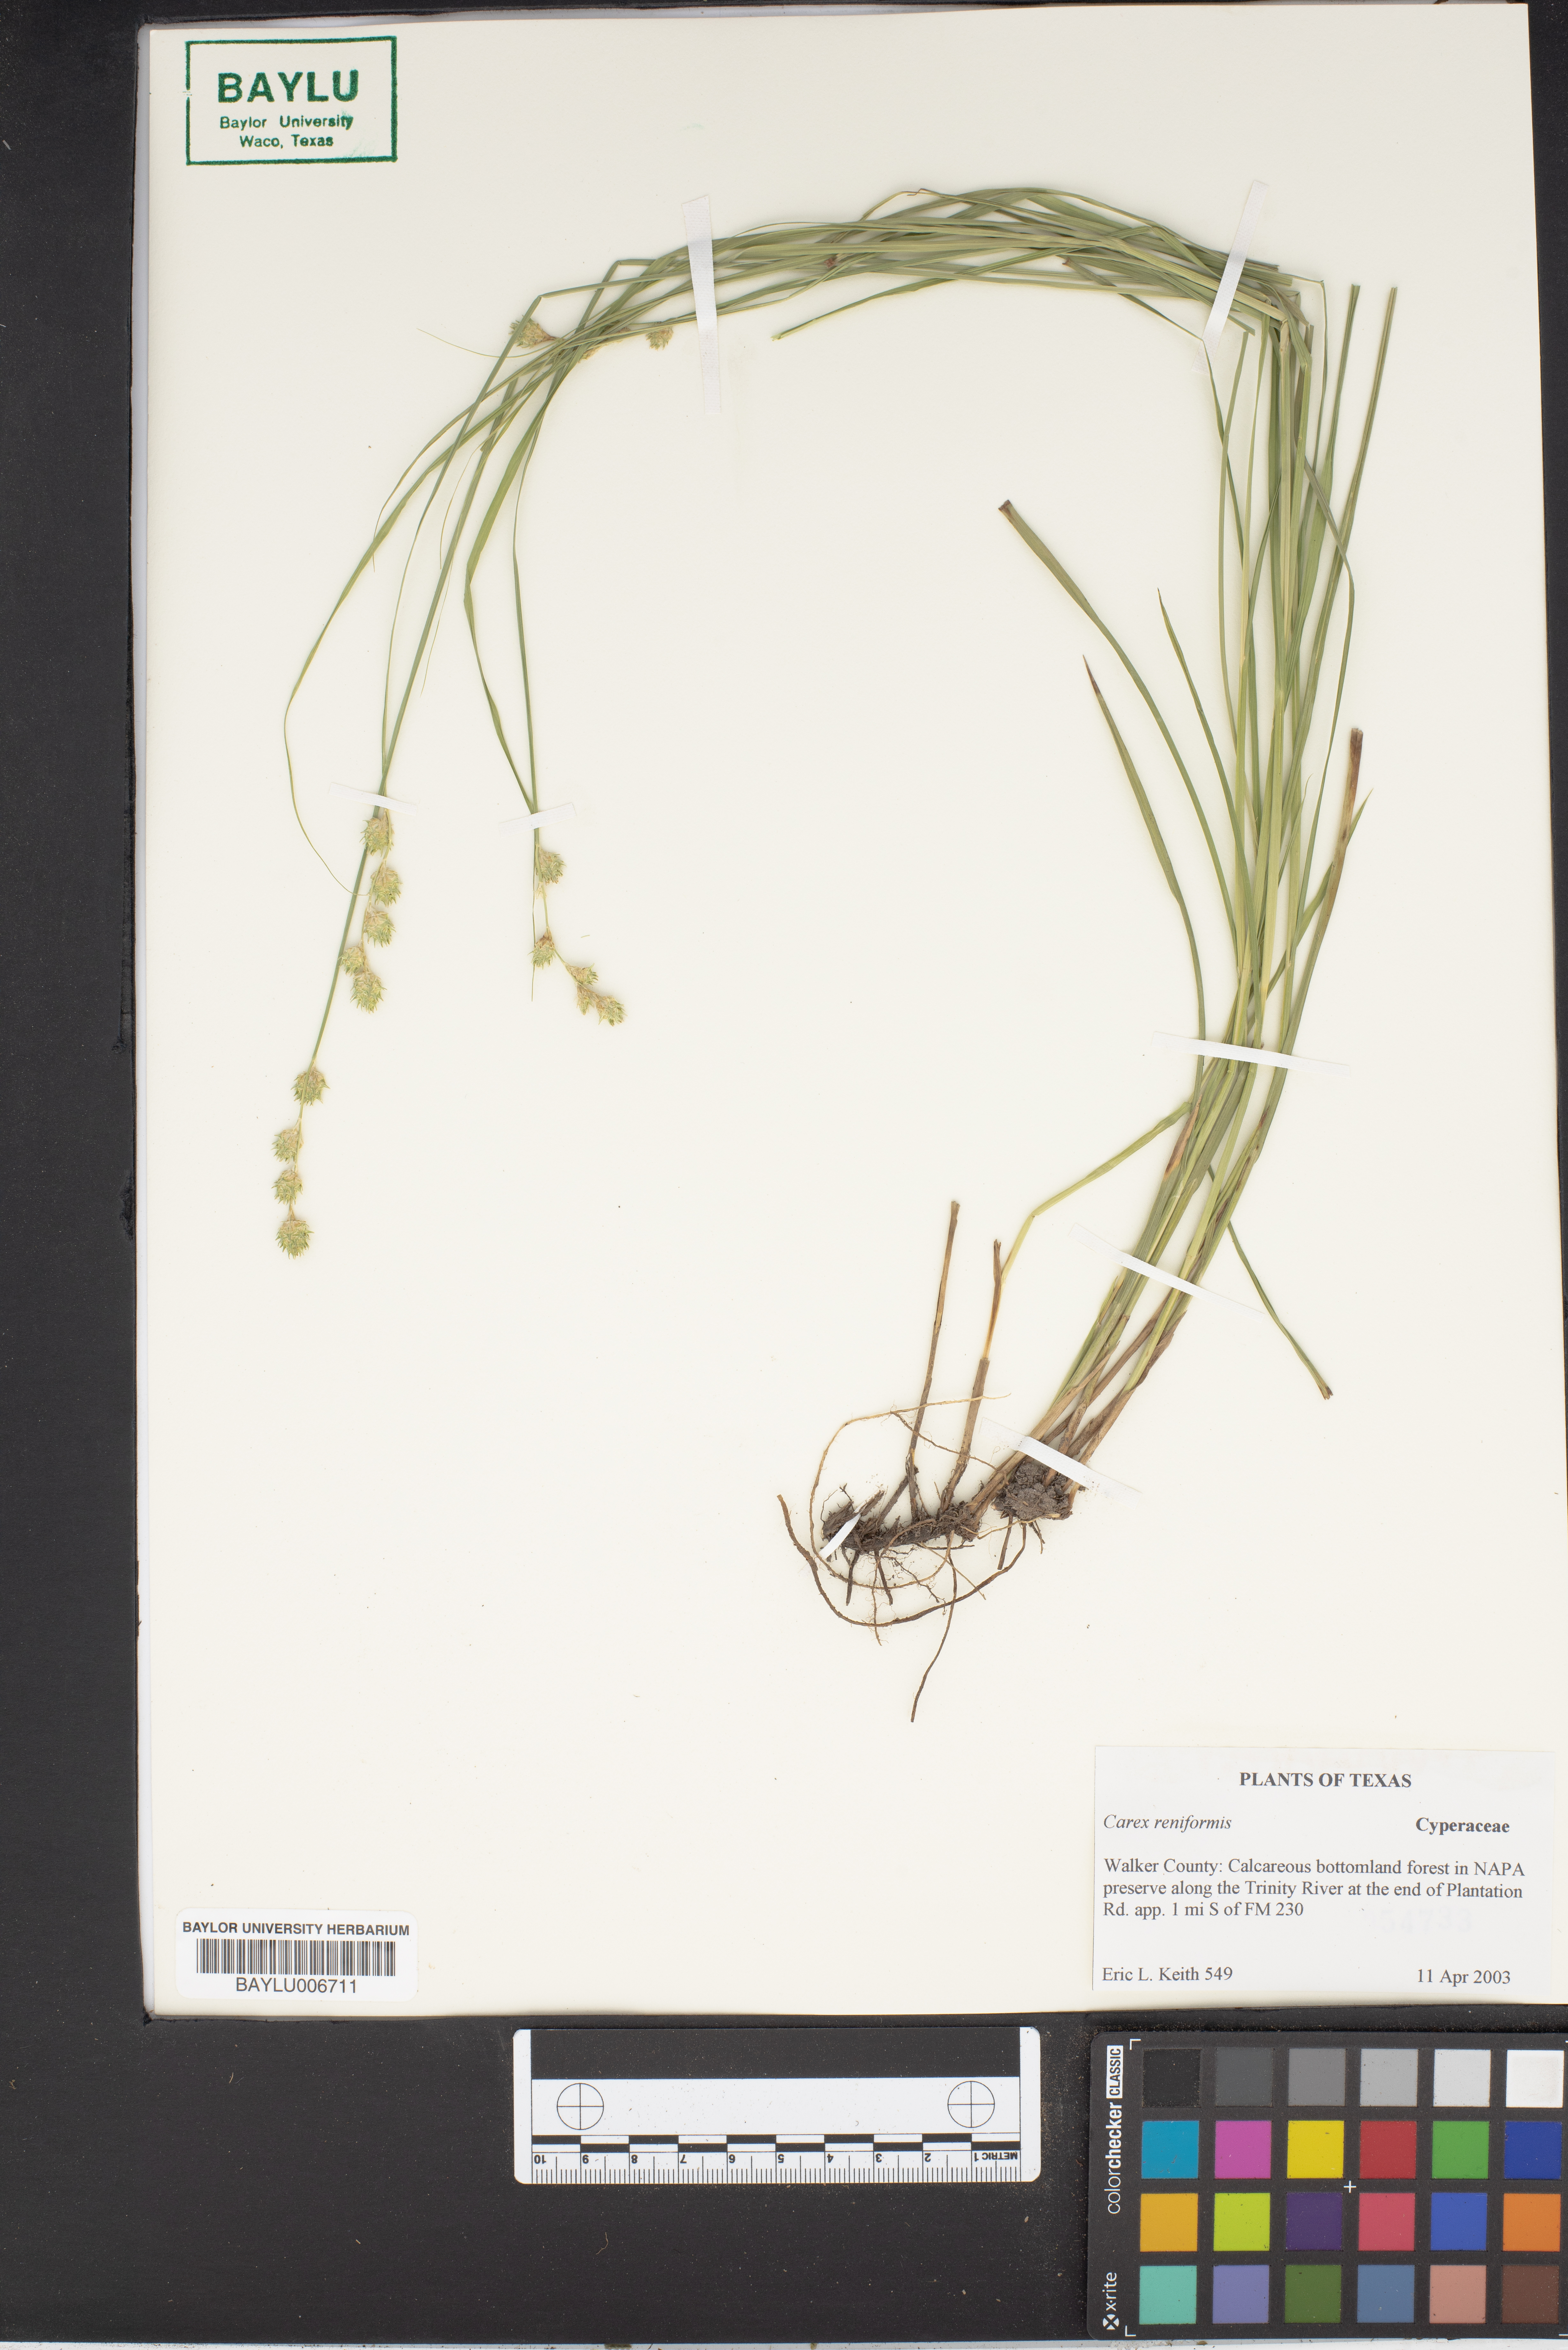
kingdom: Plantae
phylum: Tracheophyta
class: Liliopsida
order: Poales
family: Cyperaceae
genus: Carex
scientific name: Carex reniformis
